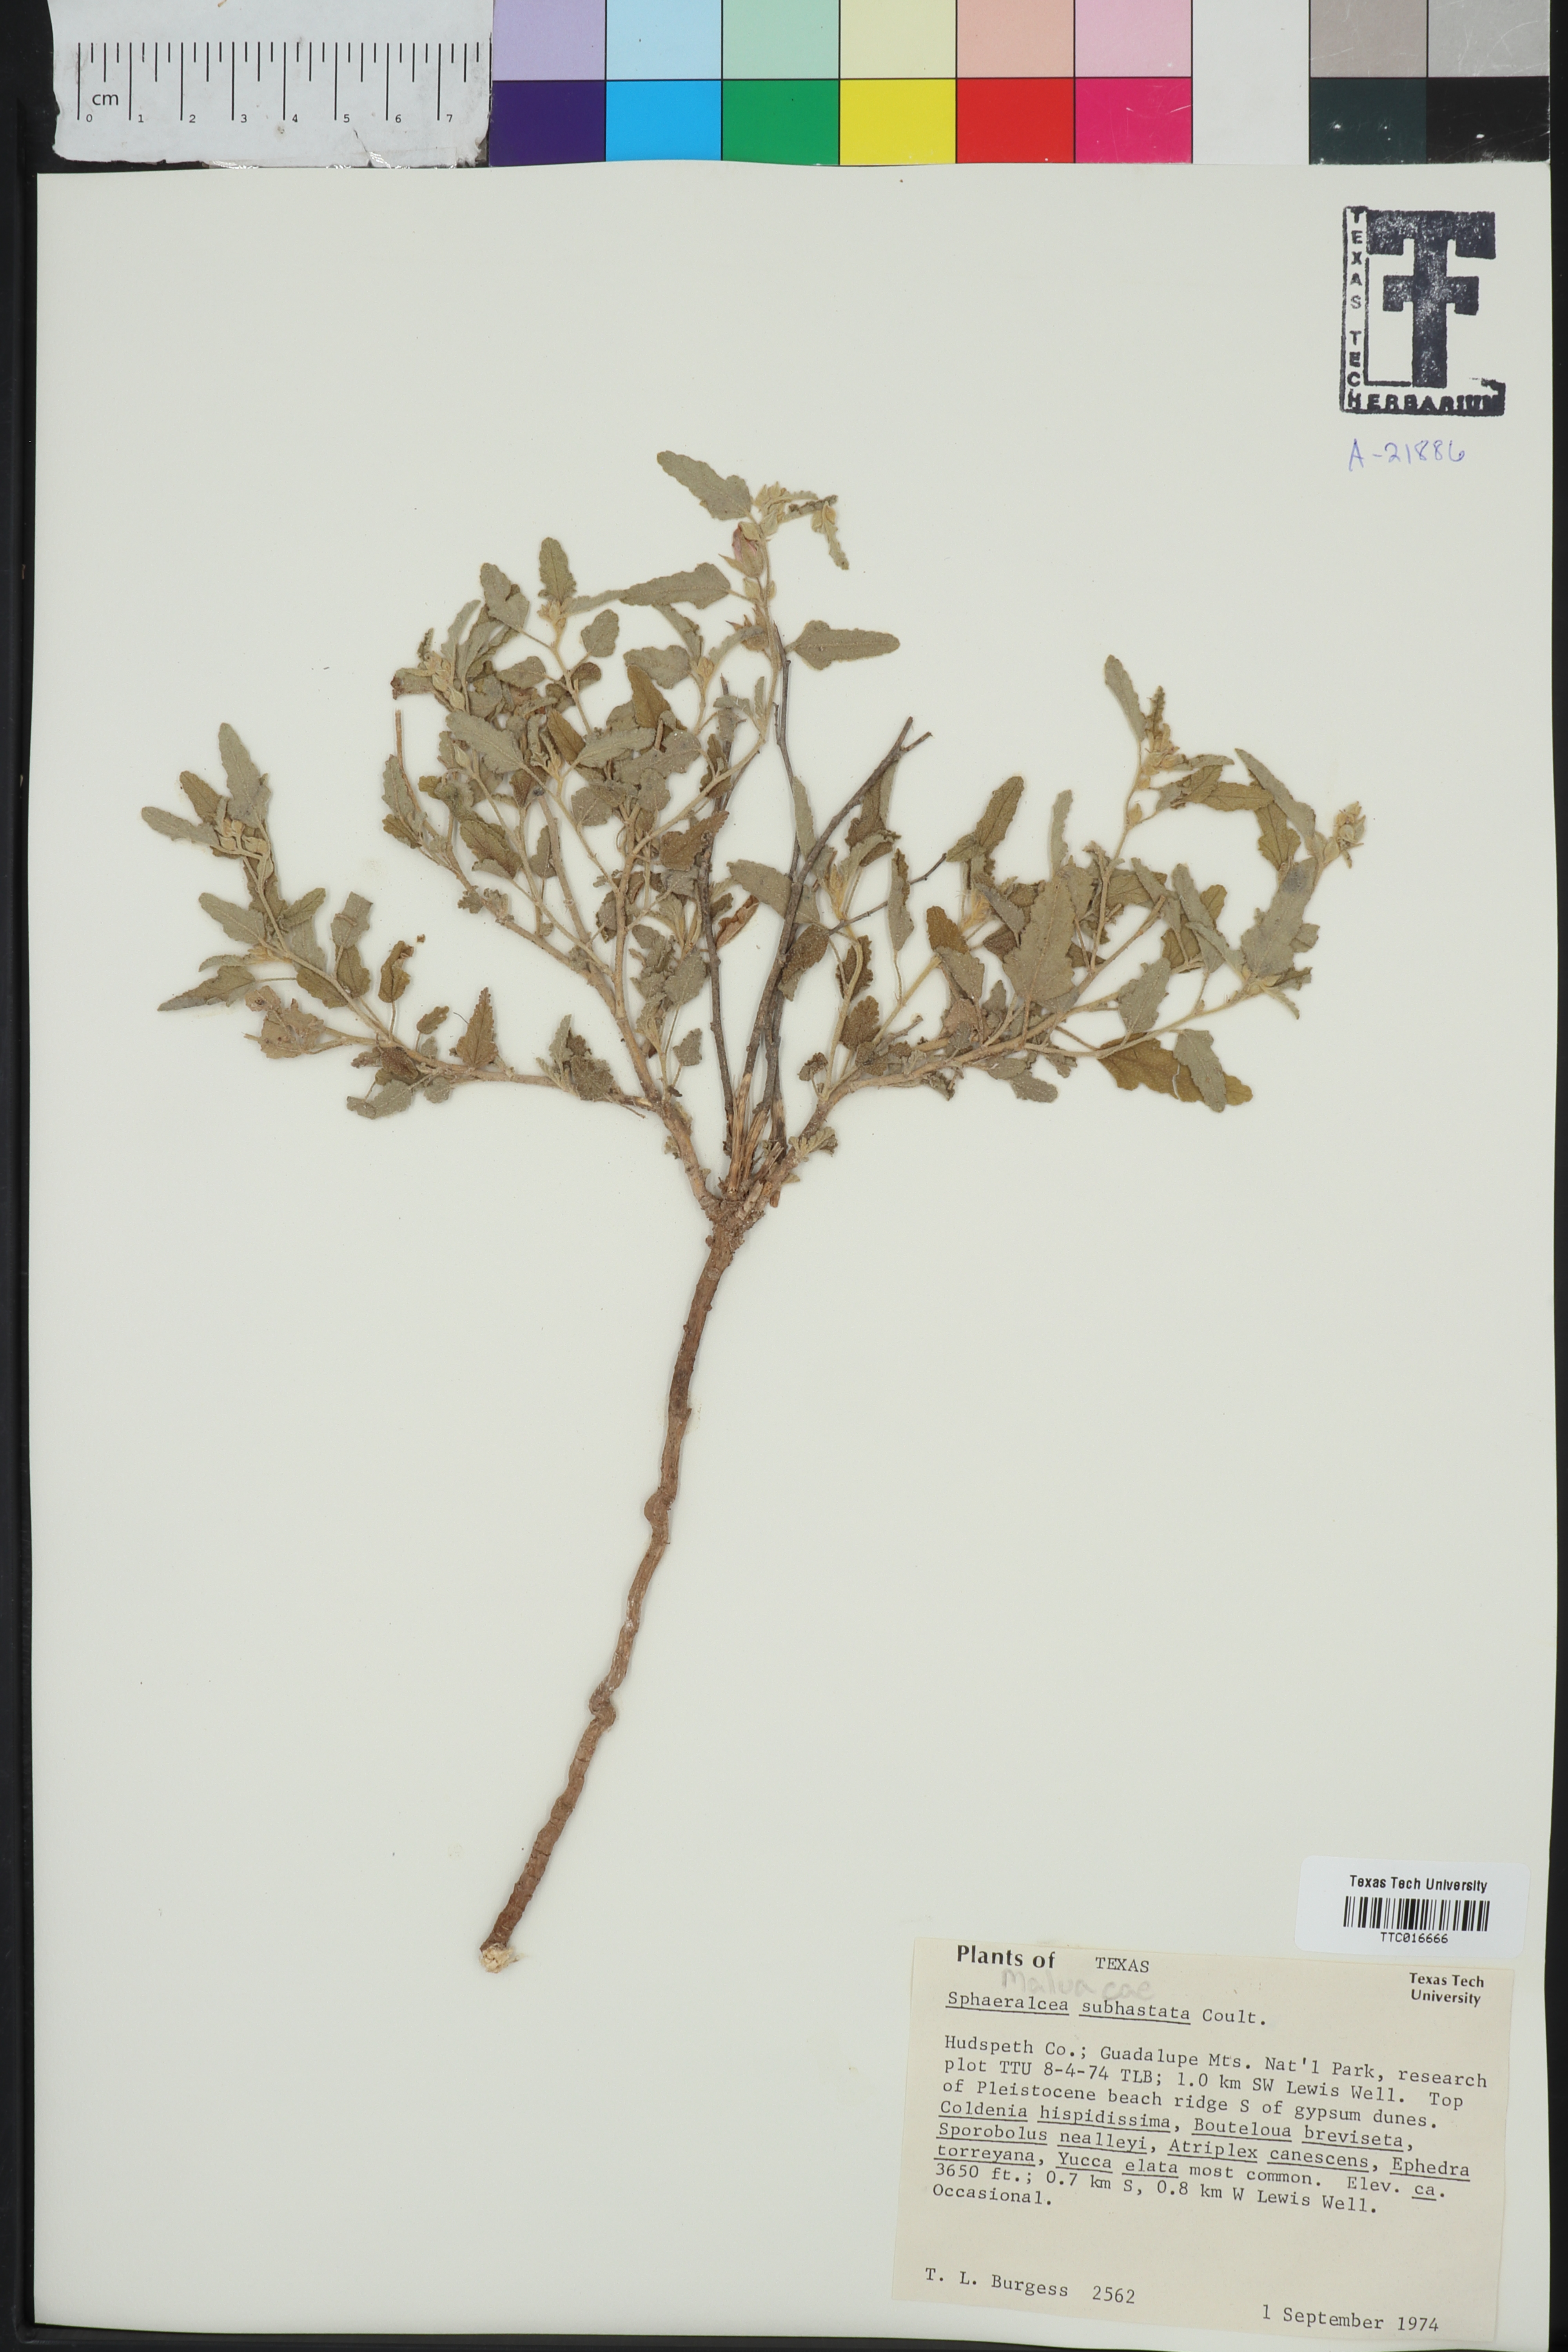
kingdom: Plantae
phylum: Tracheophyta
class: Magnoliopsida
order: Malvales
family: Malvaceae
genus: Sphaeralcea
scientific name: Sphaeralcea hastulata
